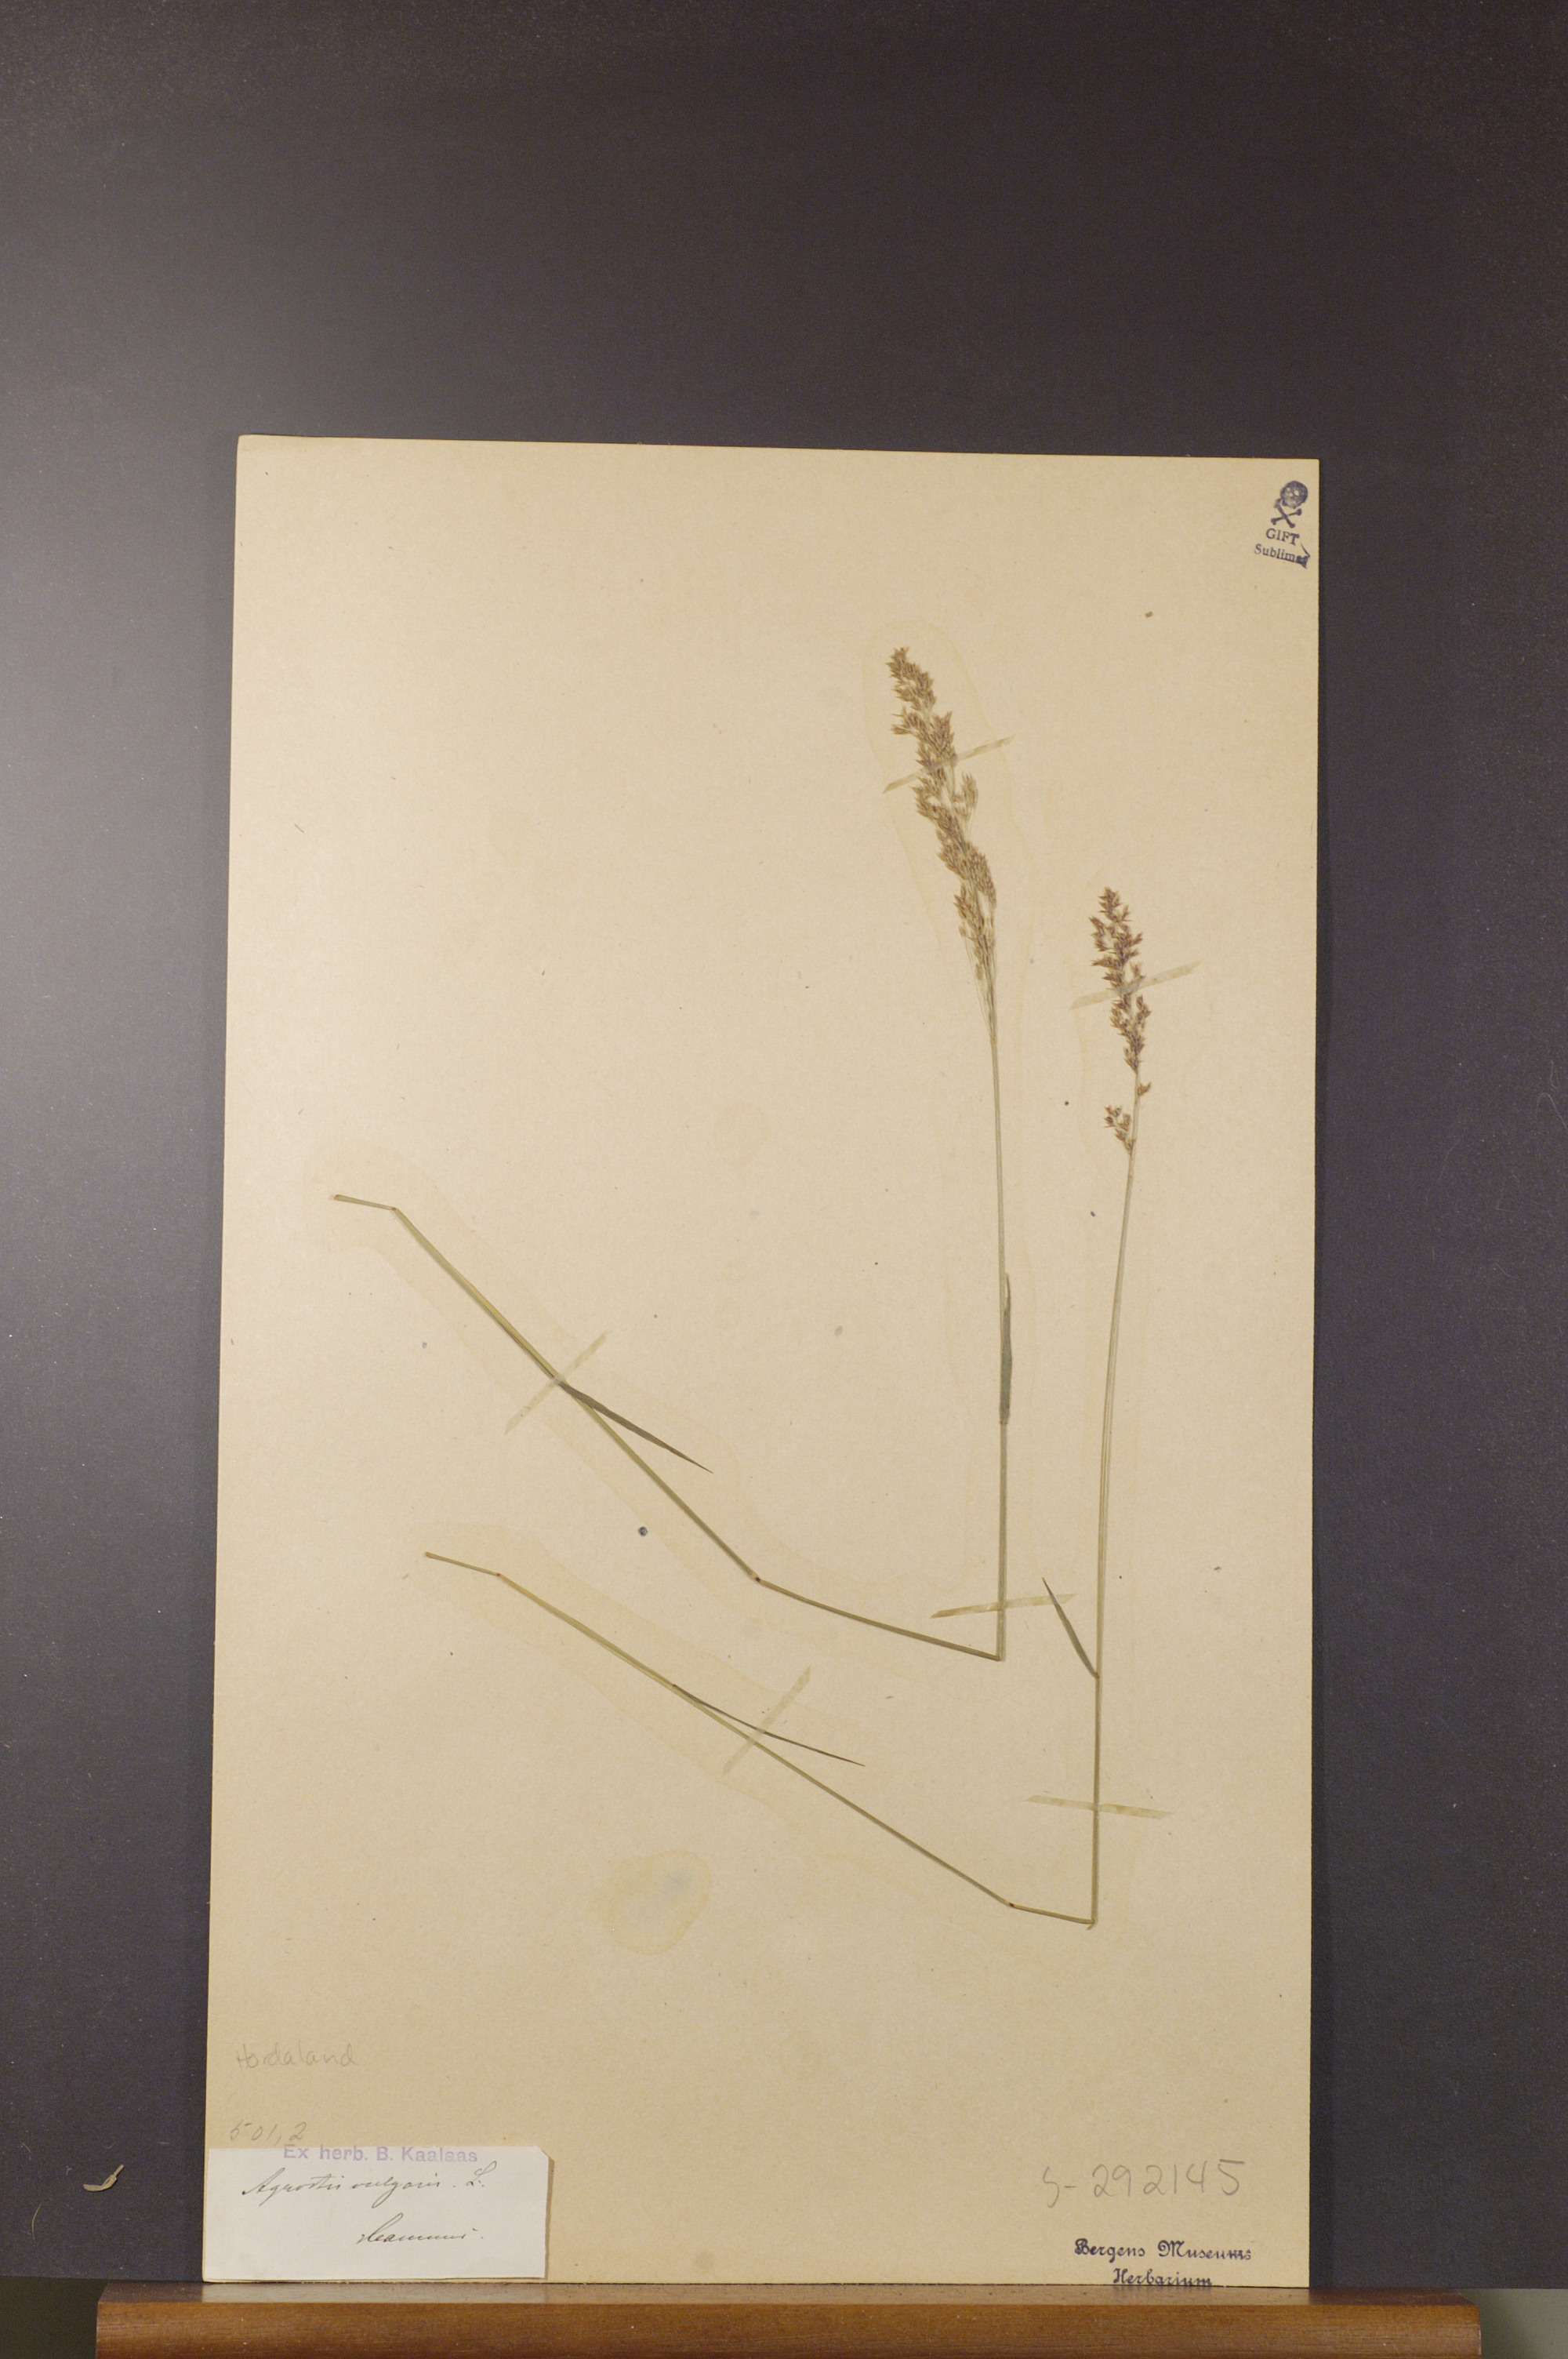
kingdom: Plantae
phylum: Tracheophyta
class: Liliopsida
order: Poales
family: Poaceae
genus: Agrostis
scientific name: Agrostis capillaris
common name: Colonial bentgrass
